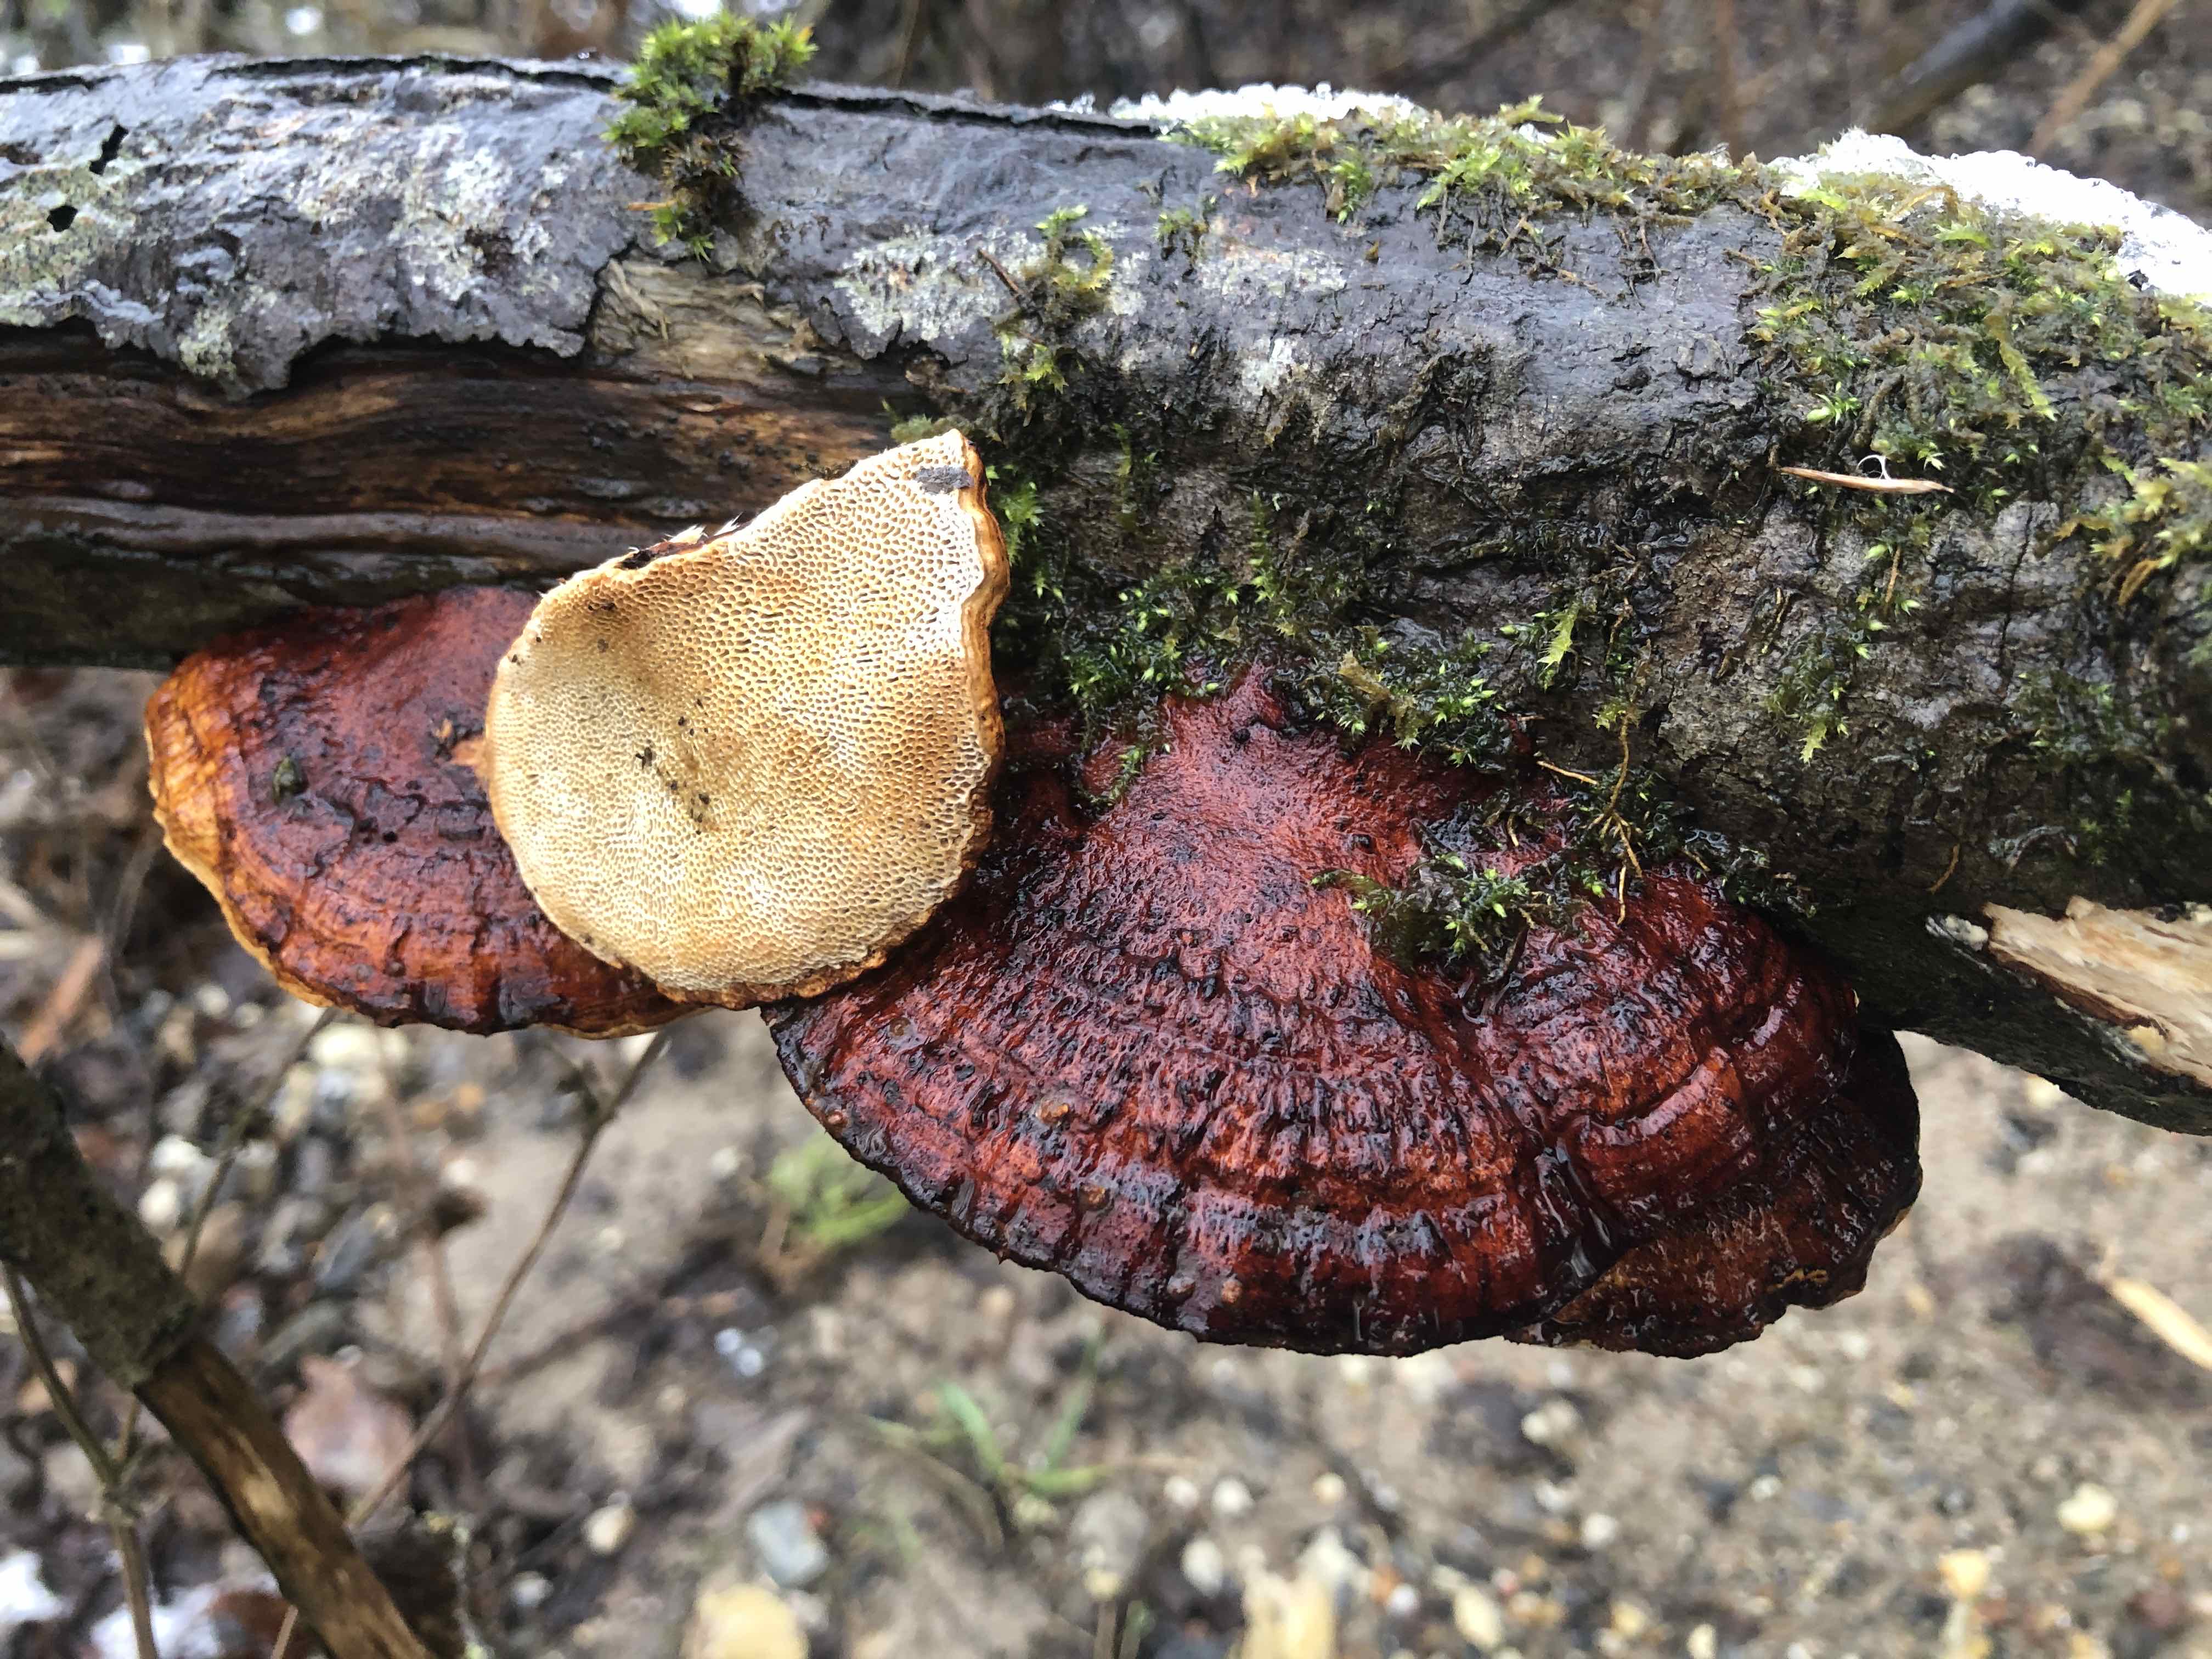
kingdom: Fungi
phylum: Basidiomycota
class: Agaricomycetes
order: Polyporales
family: Polyporaceae
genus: Daedaleopsis
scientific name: Daedaleopsis confragosa
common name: rødmende læderporesvamp
